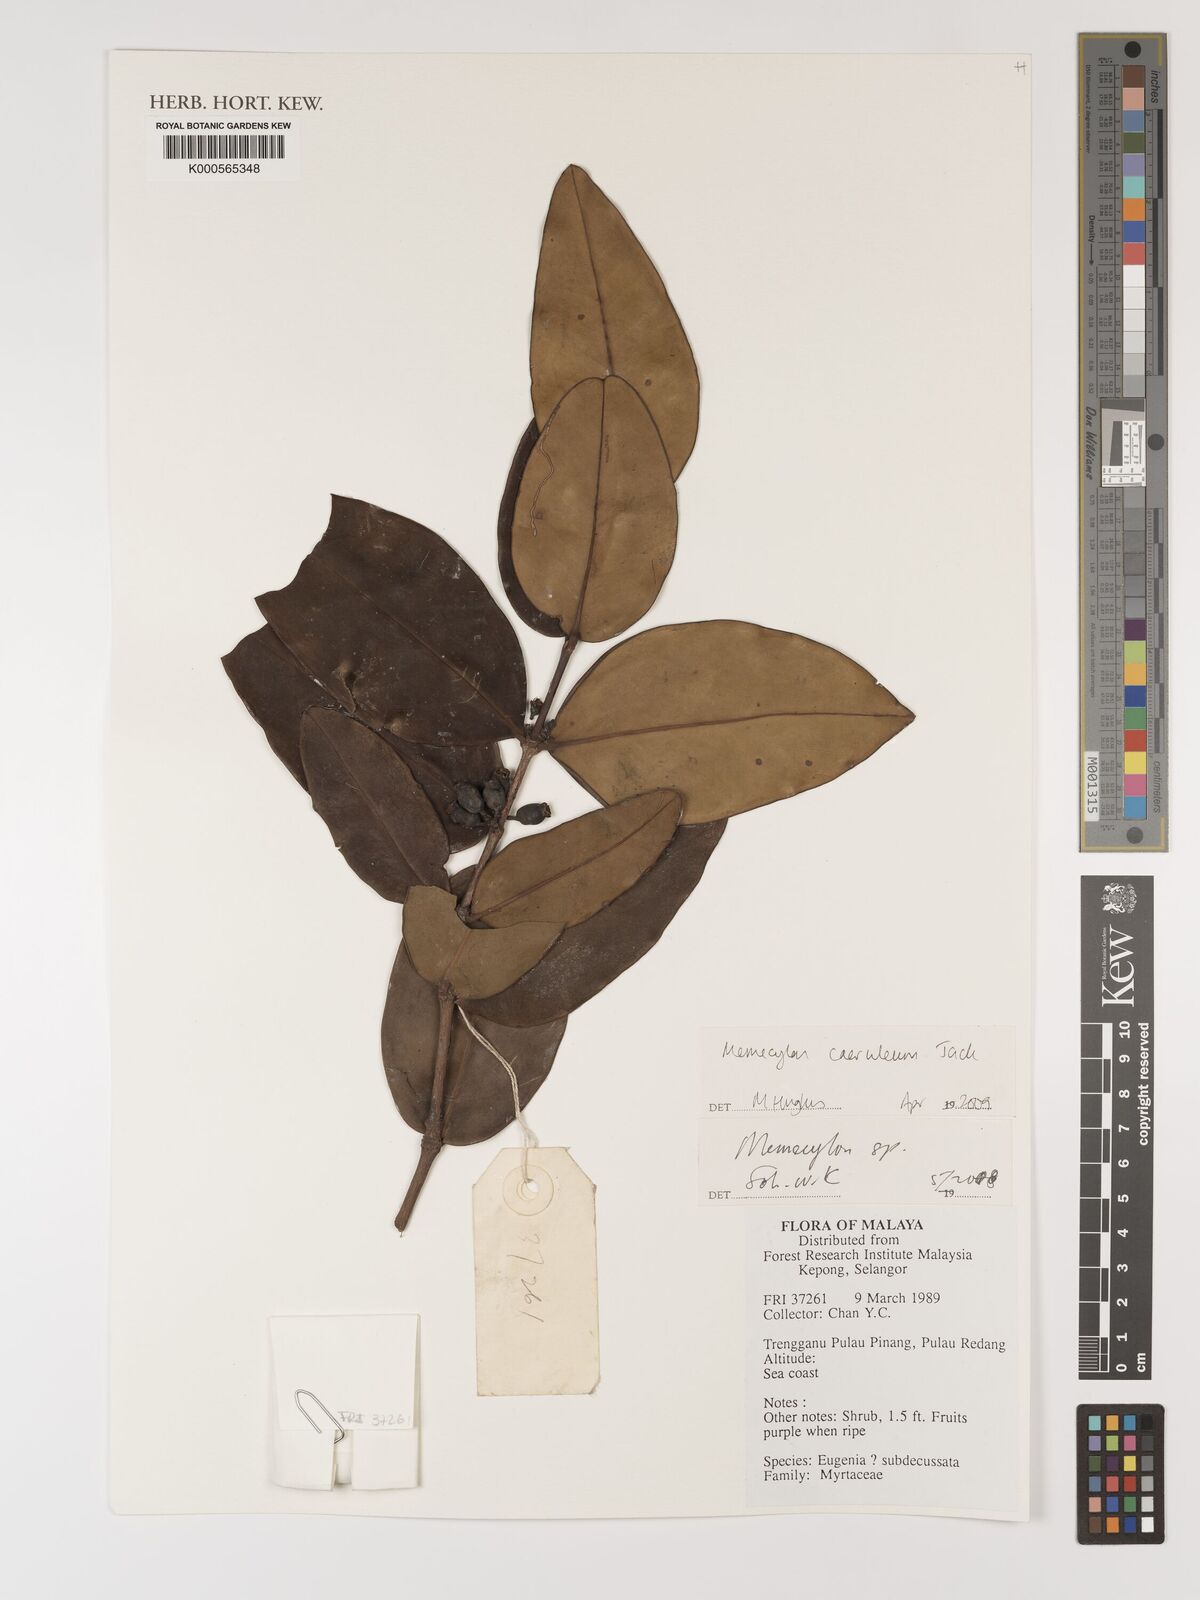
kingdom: Plantae
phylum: Tracheophyta
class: Magnoliopsida
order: Myrtales
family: Melastomataceae
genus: Memecylon
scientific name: Memecylon caeruleum
